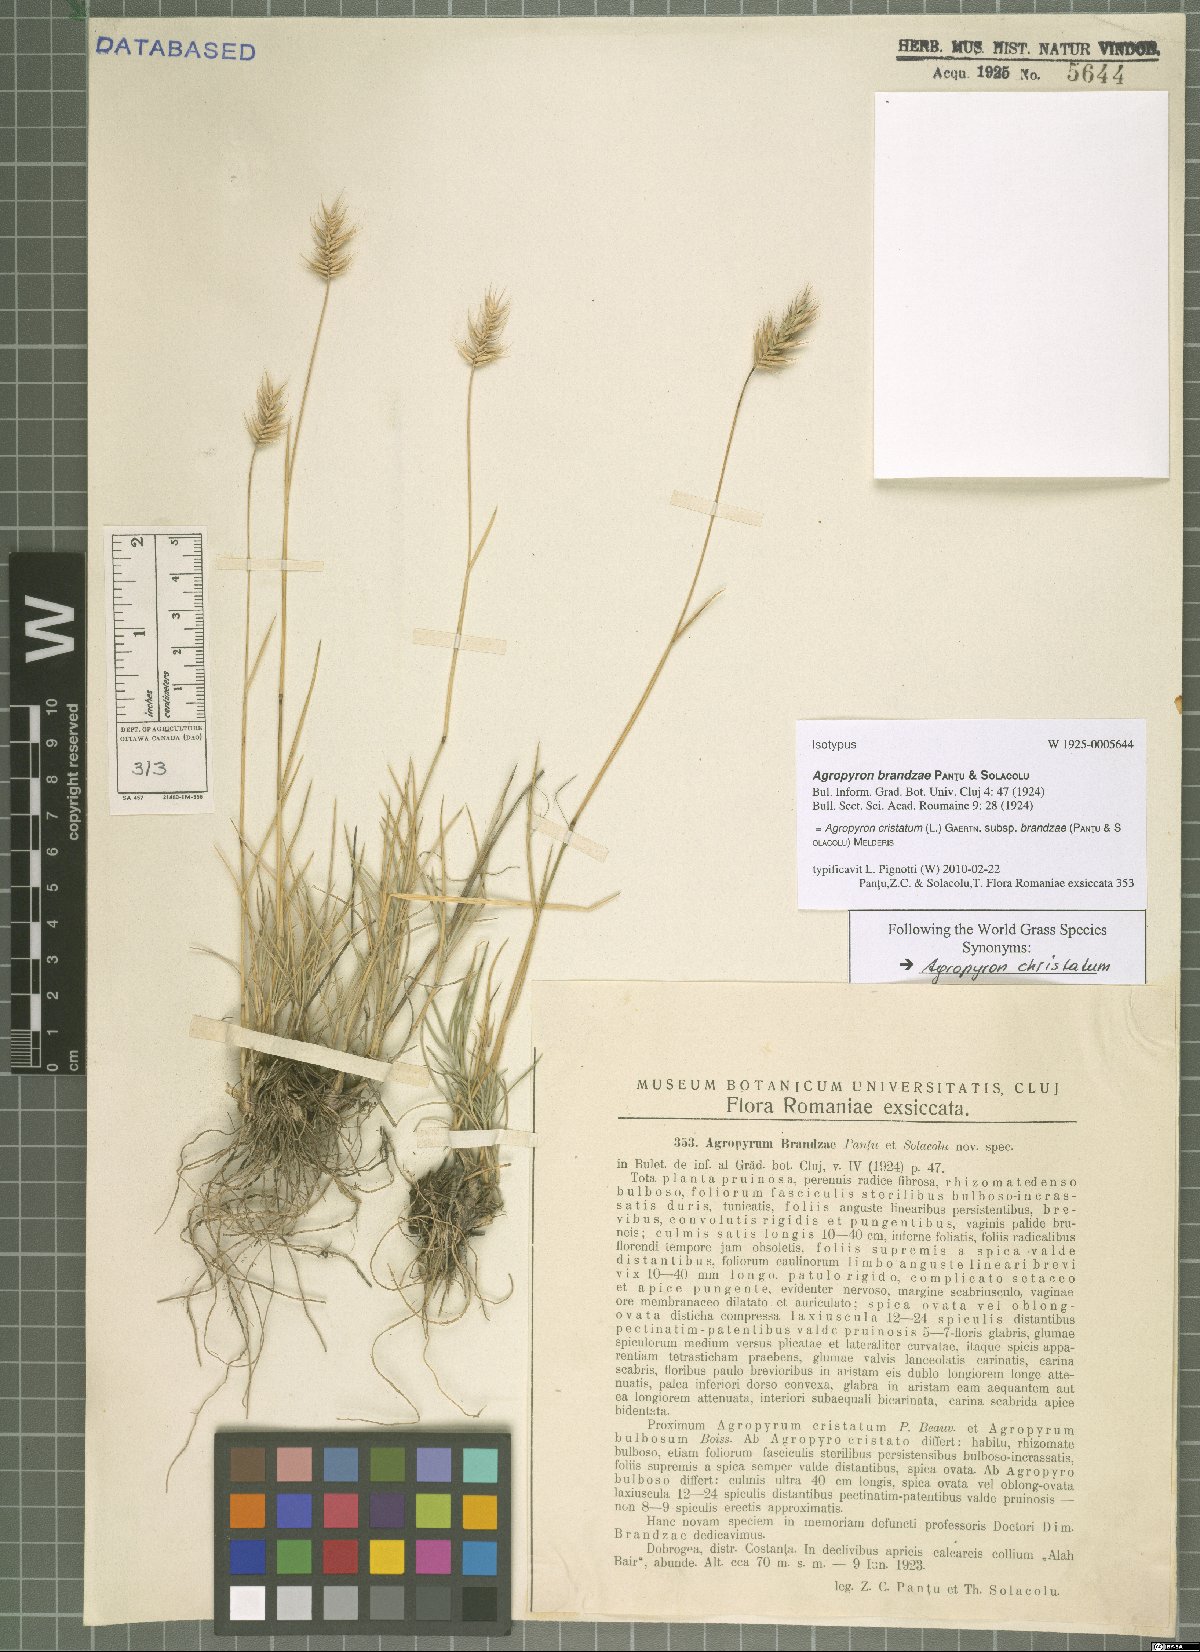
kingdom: Plantae
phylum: Tracheophyta
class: Liliopsida
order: Poales
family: Poaceae
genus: Agropyron
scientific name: Agropyron cristatum
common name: Crested wheatgrass
